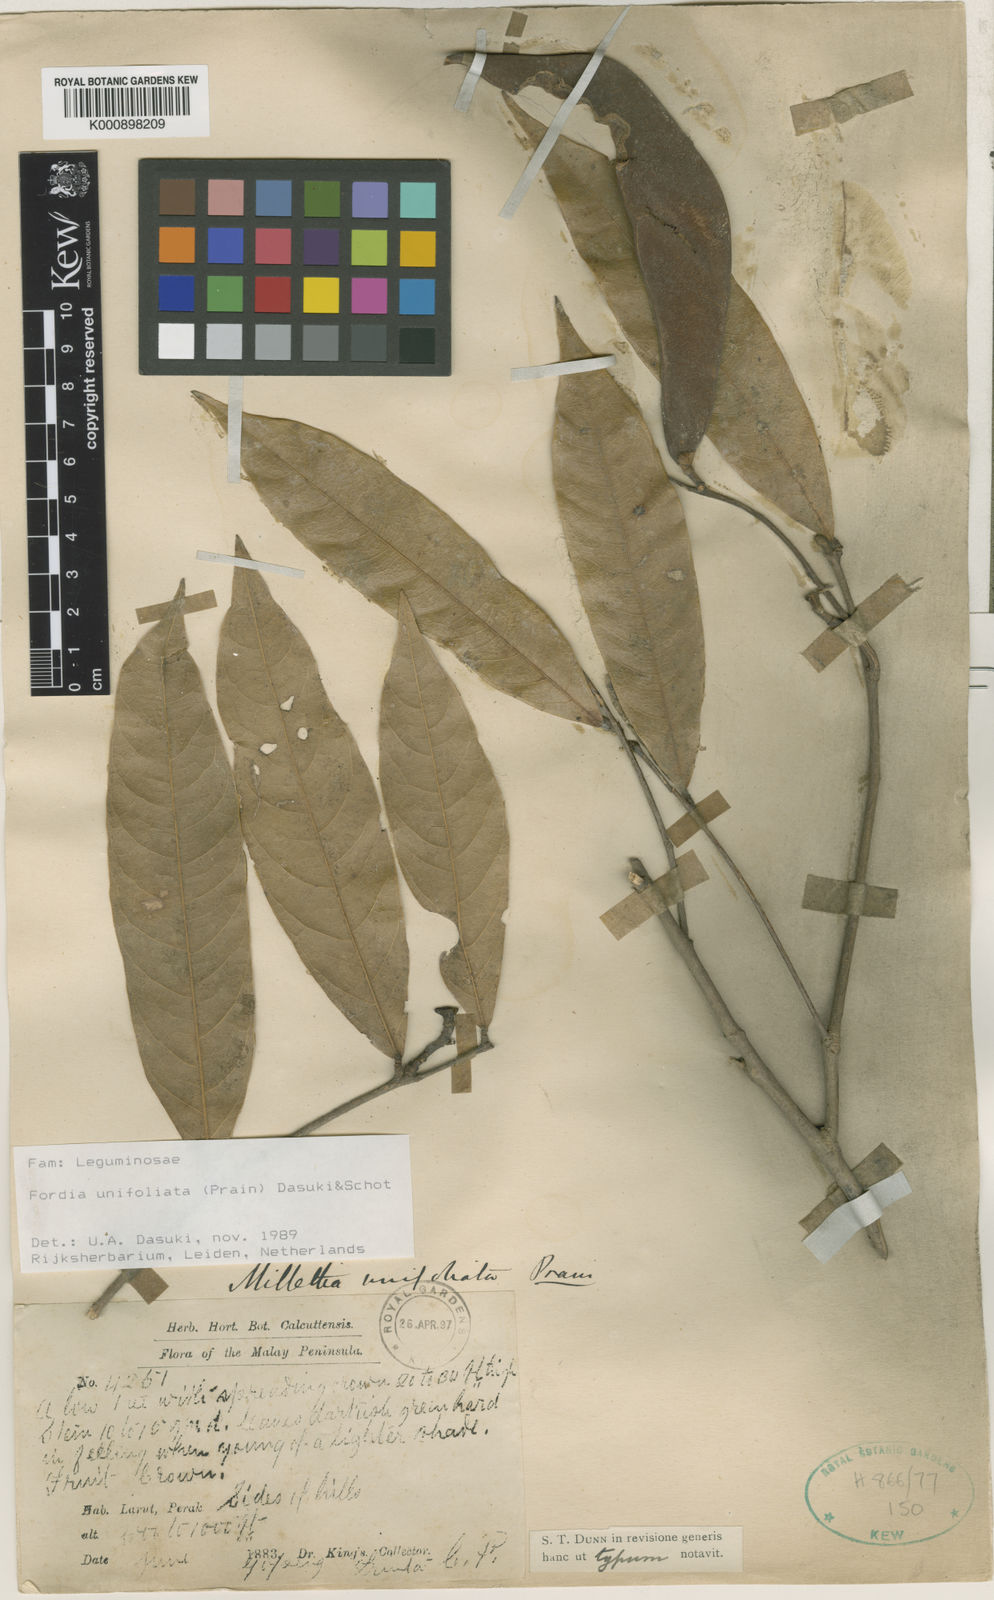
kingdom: Plantae
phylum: Tracheophyta
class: Magnoliopsida
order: Fabales
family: Fabaceae
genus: Imbralyx
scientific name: Imbralyx unifoliatus
